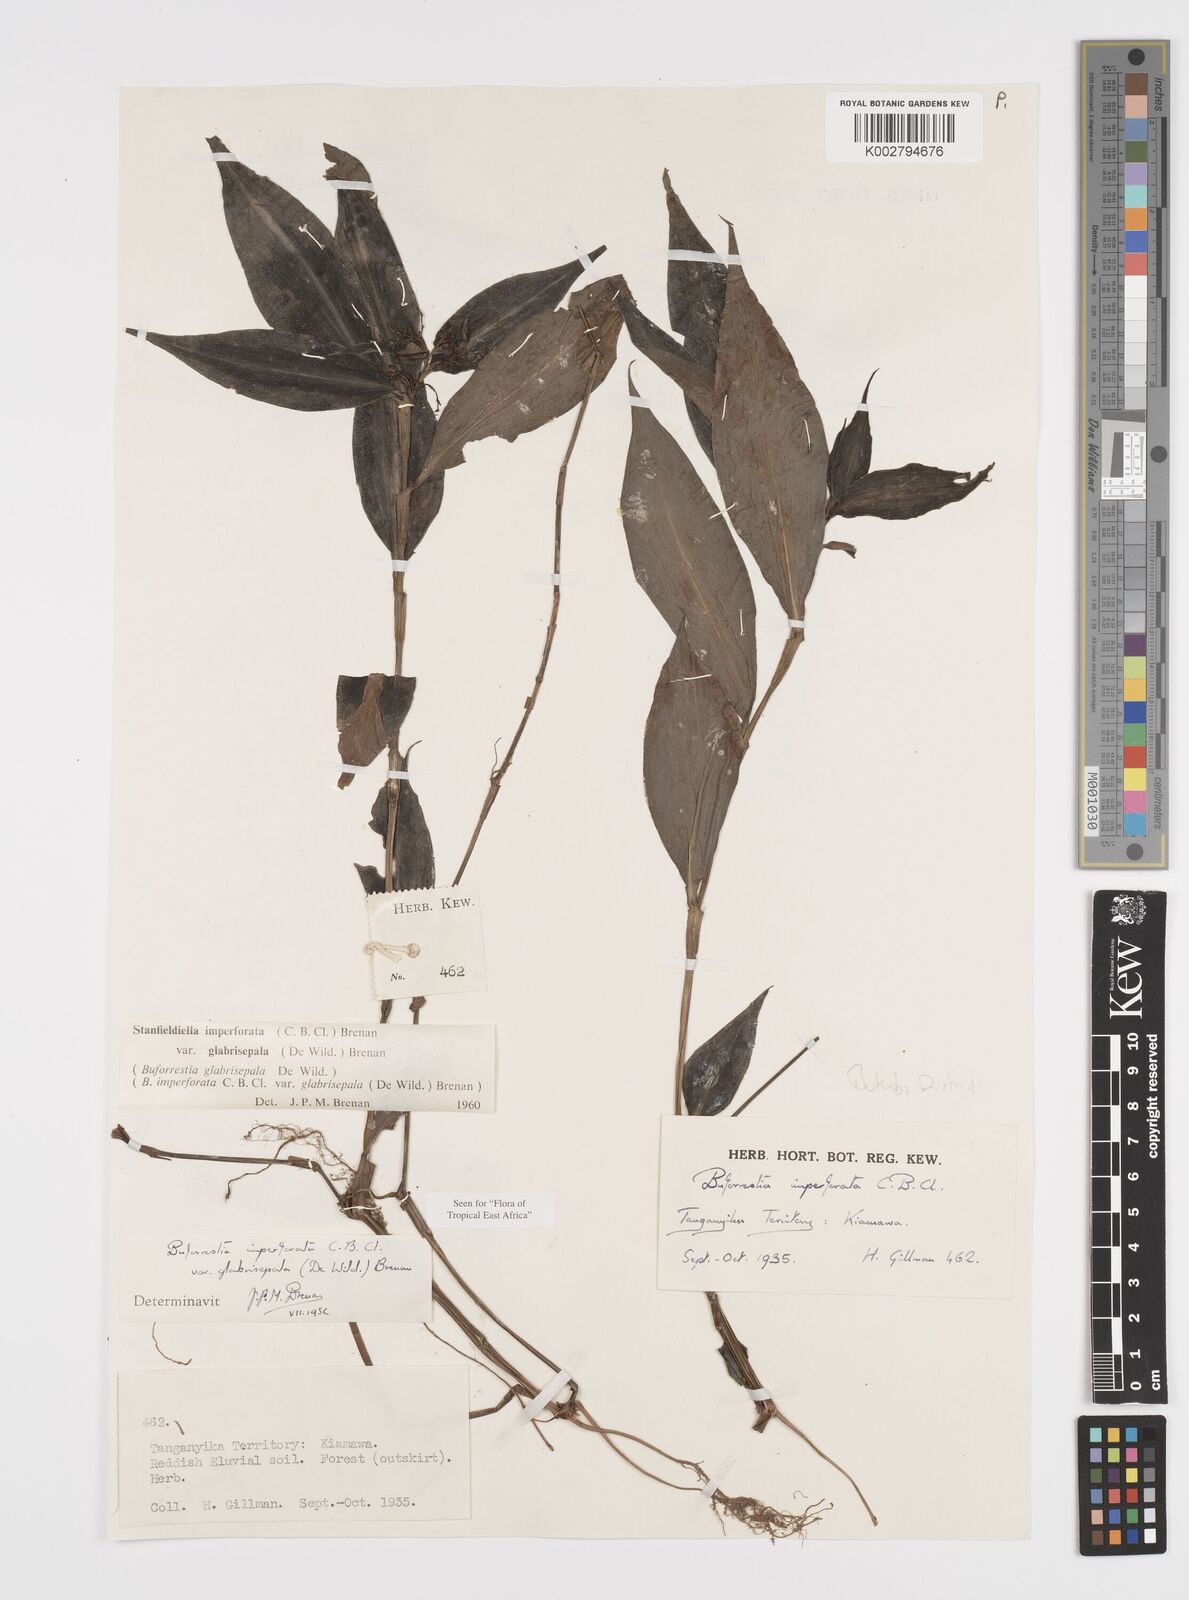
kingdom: Plantae
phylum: Tracheophyta
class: Liliopsida
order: Commelinales
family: Commelinaceae
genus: Stanfieldiella
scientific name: Stanfieldiella imperforata
